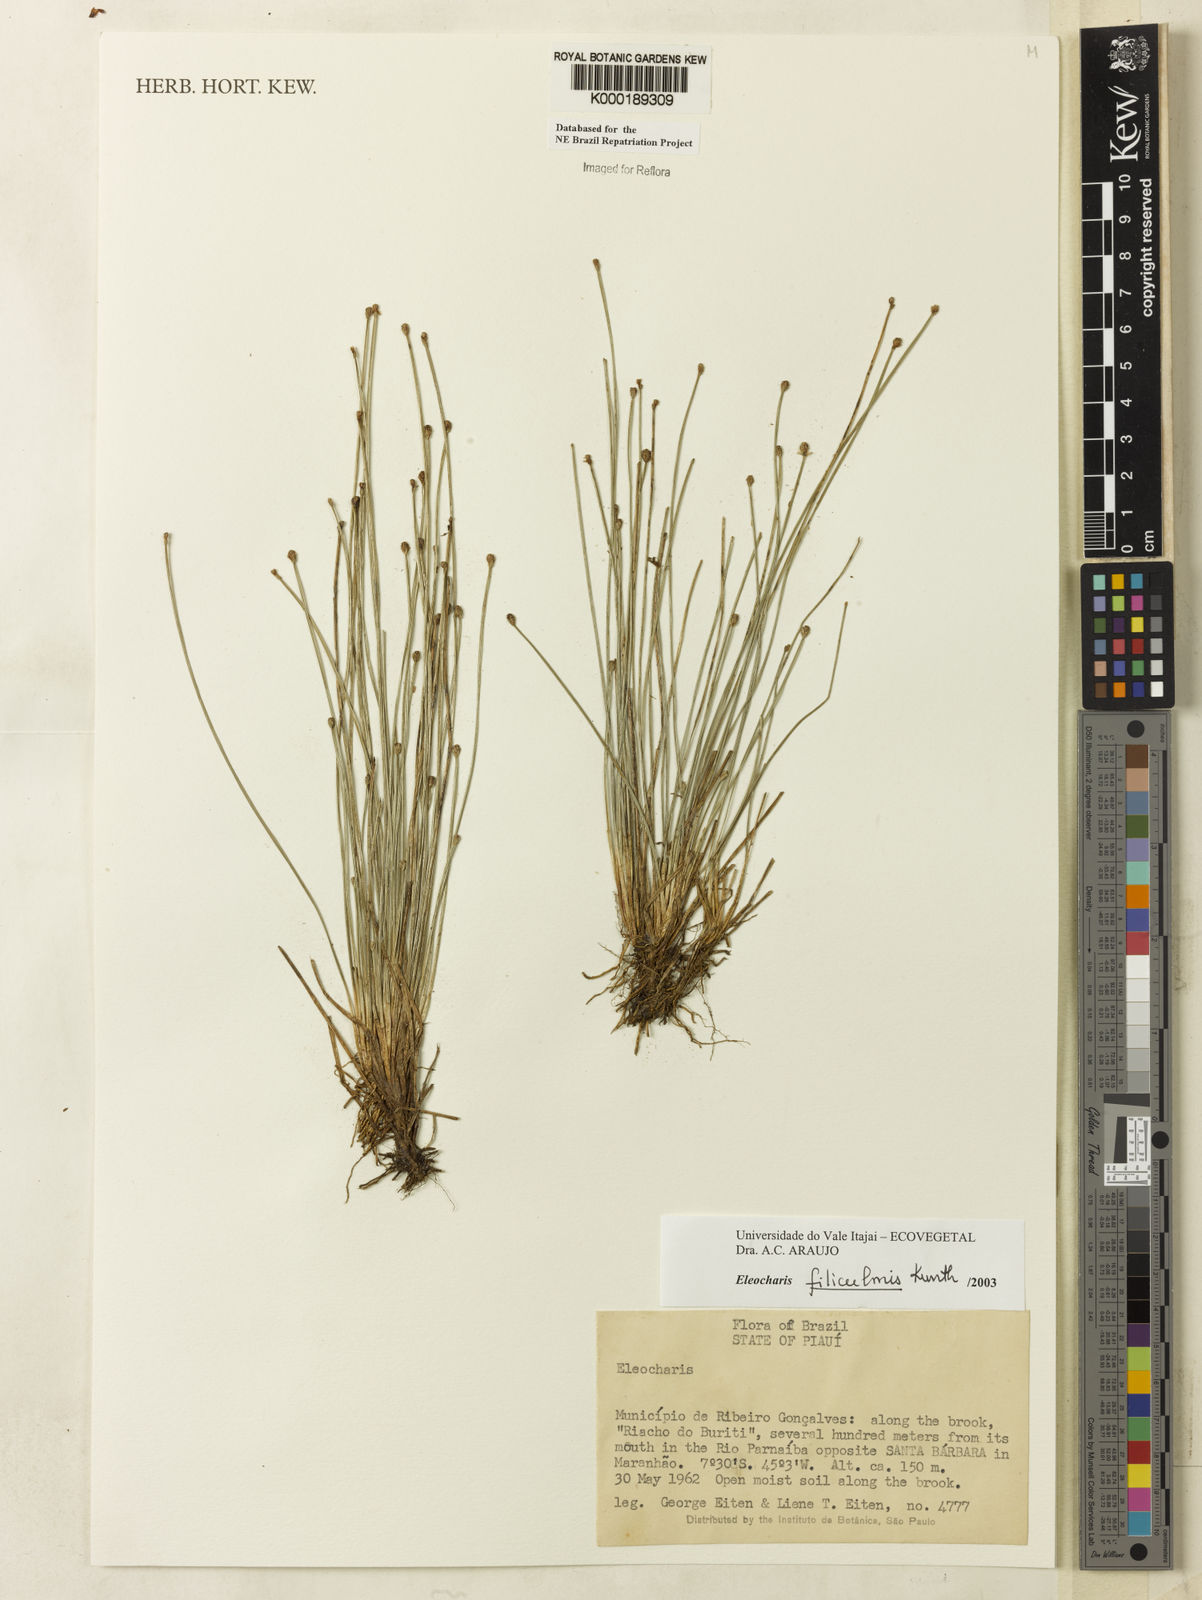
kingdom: Plantae
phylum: Tracheophyta
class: Liliopsida
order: Poales
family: Cyperaceae
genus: Eleocharis
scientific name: Eleocharis filiculmis
